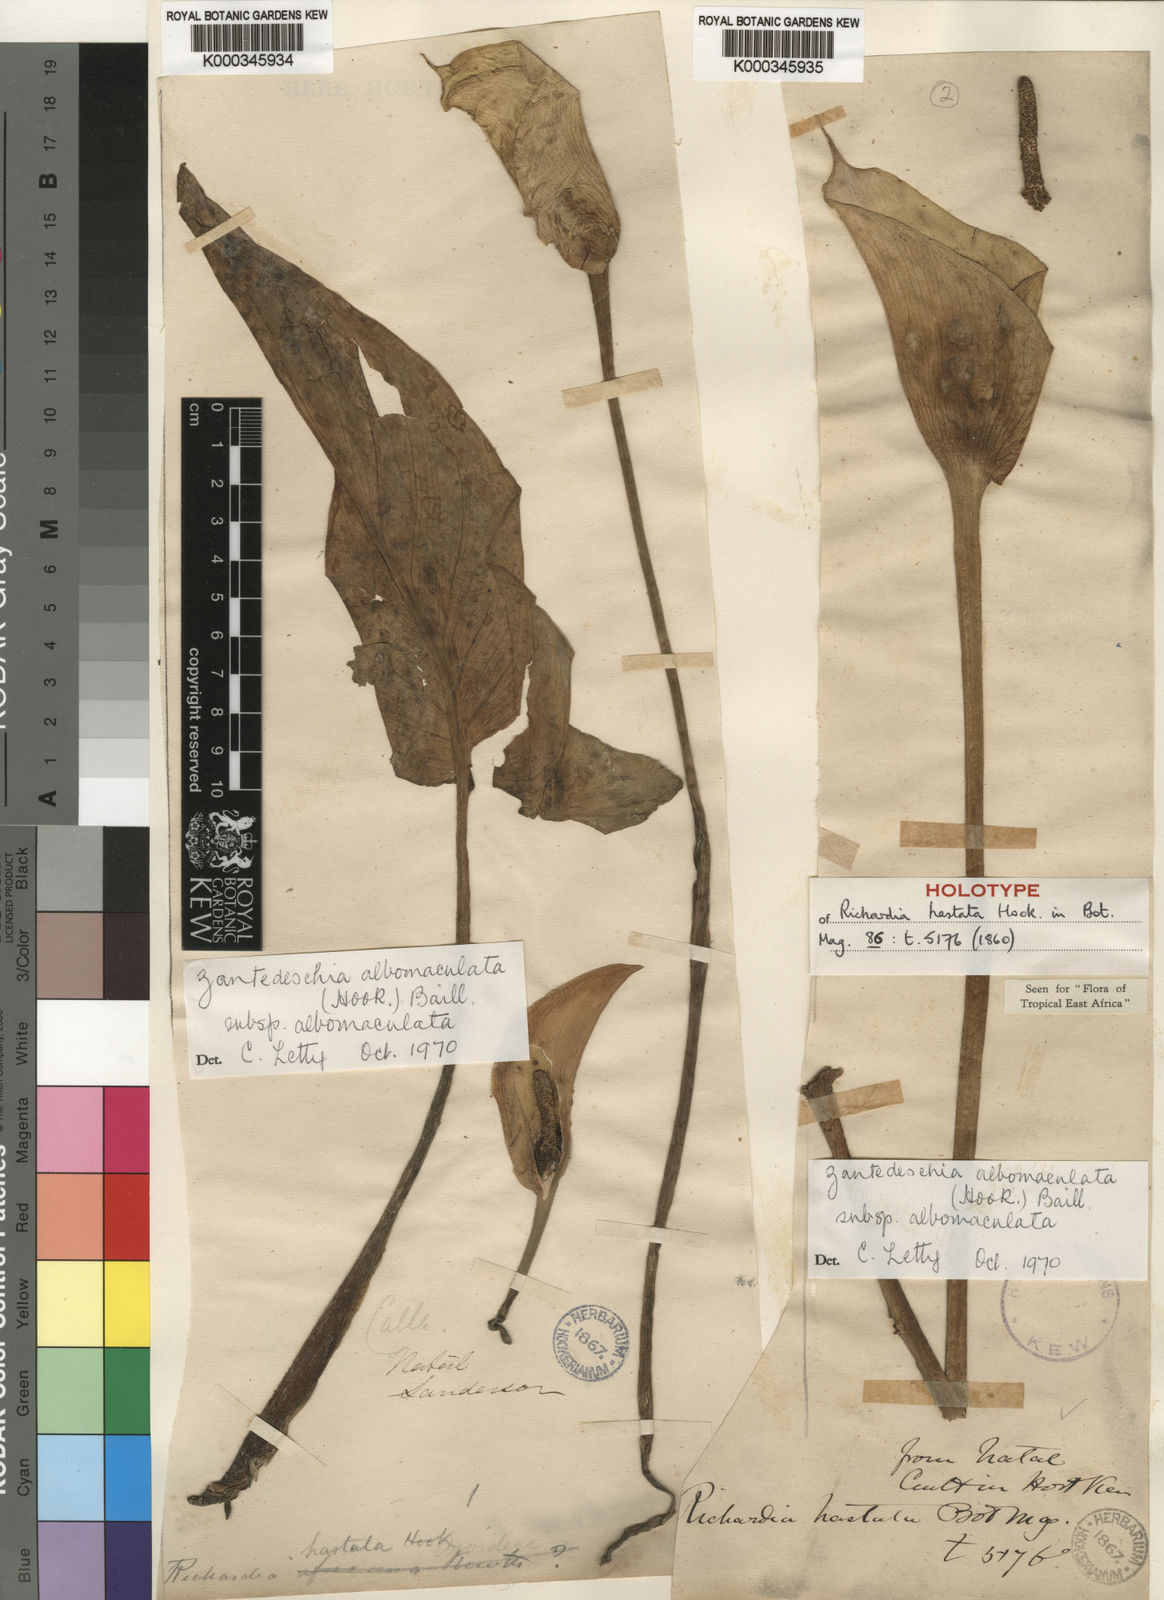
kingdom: Plantae
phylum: Tracheophyta
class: Liliopsida
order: Alismatales
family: Araceae
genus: Zantedeschia
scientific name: Zantedeschia albomaculata
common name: Spotted calla lily
